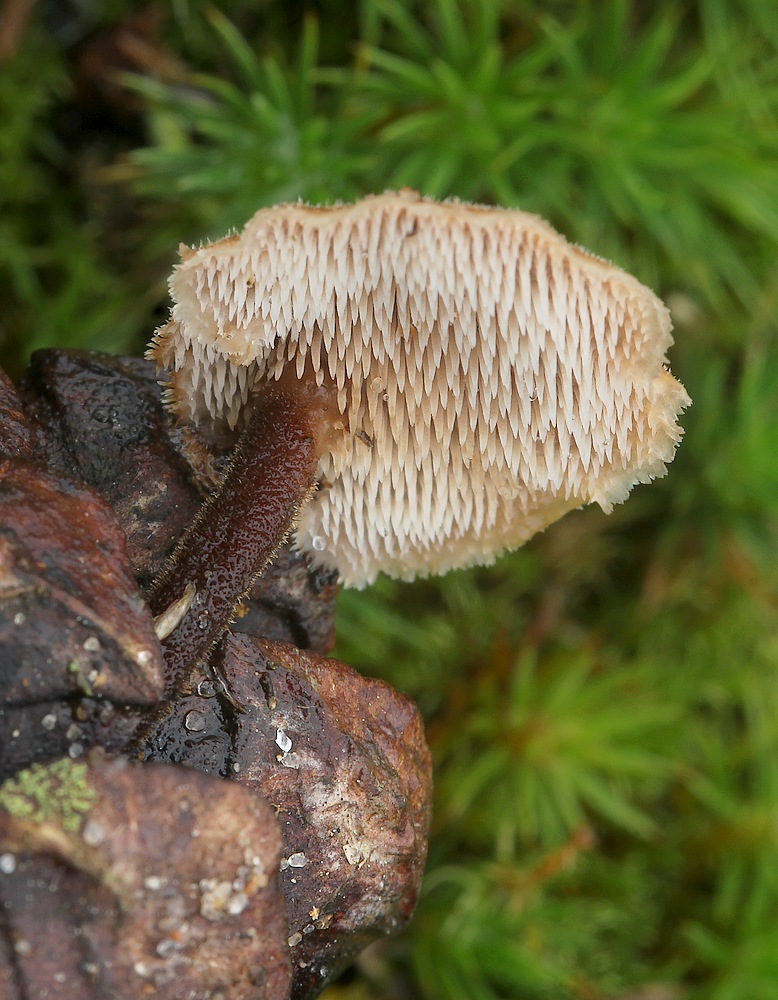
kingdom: Fungi
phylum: Basidiomycota
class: Agaricomycetes
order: Russulales
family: Auriscalpiaceae
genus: Auriscalpium
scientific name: Auriscalpium vulgare
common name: koglepigsvamp
